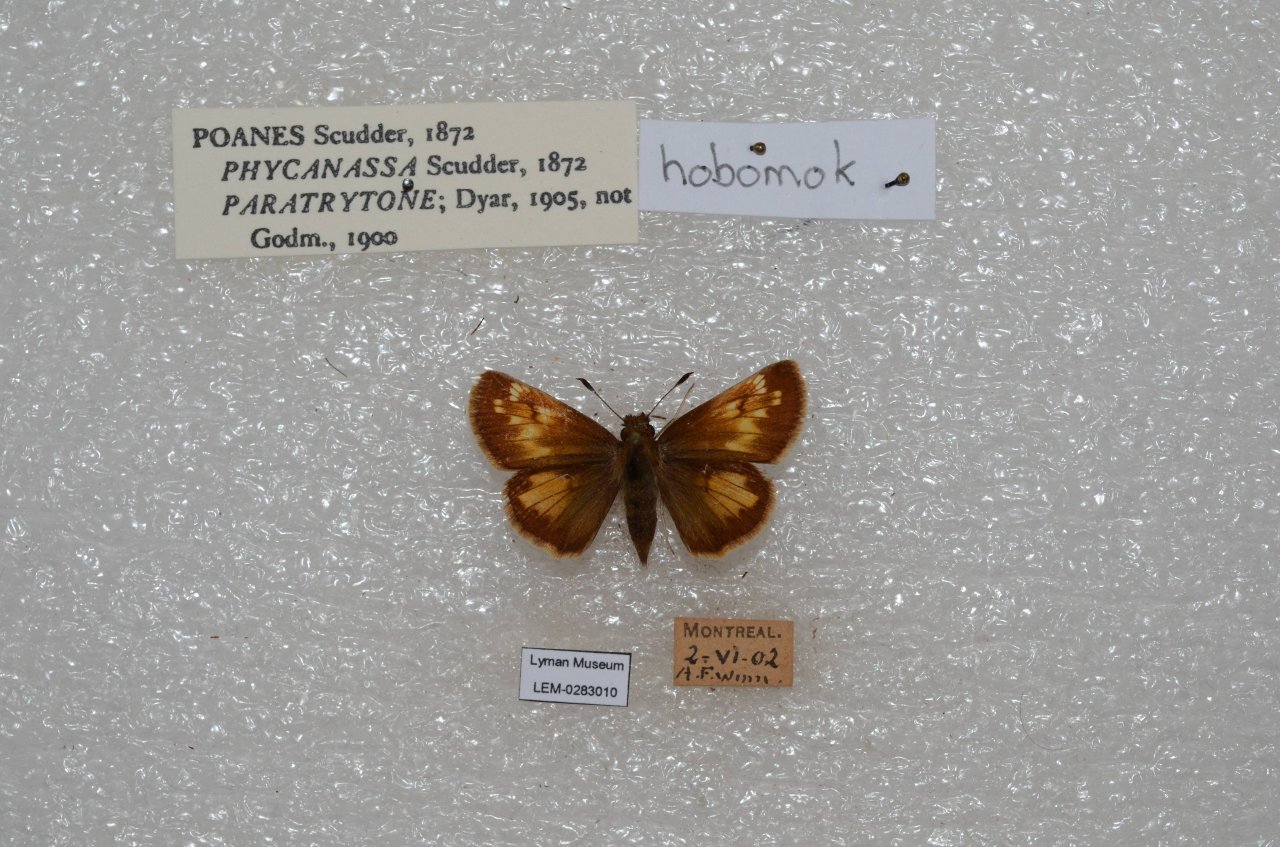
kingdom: Animalia
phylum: Arthropoda
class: Insecta
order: Lepidoptera
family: Hesperiidae
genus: Lon
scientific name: Lon hobomok
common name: Hobomok Skipper
